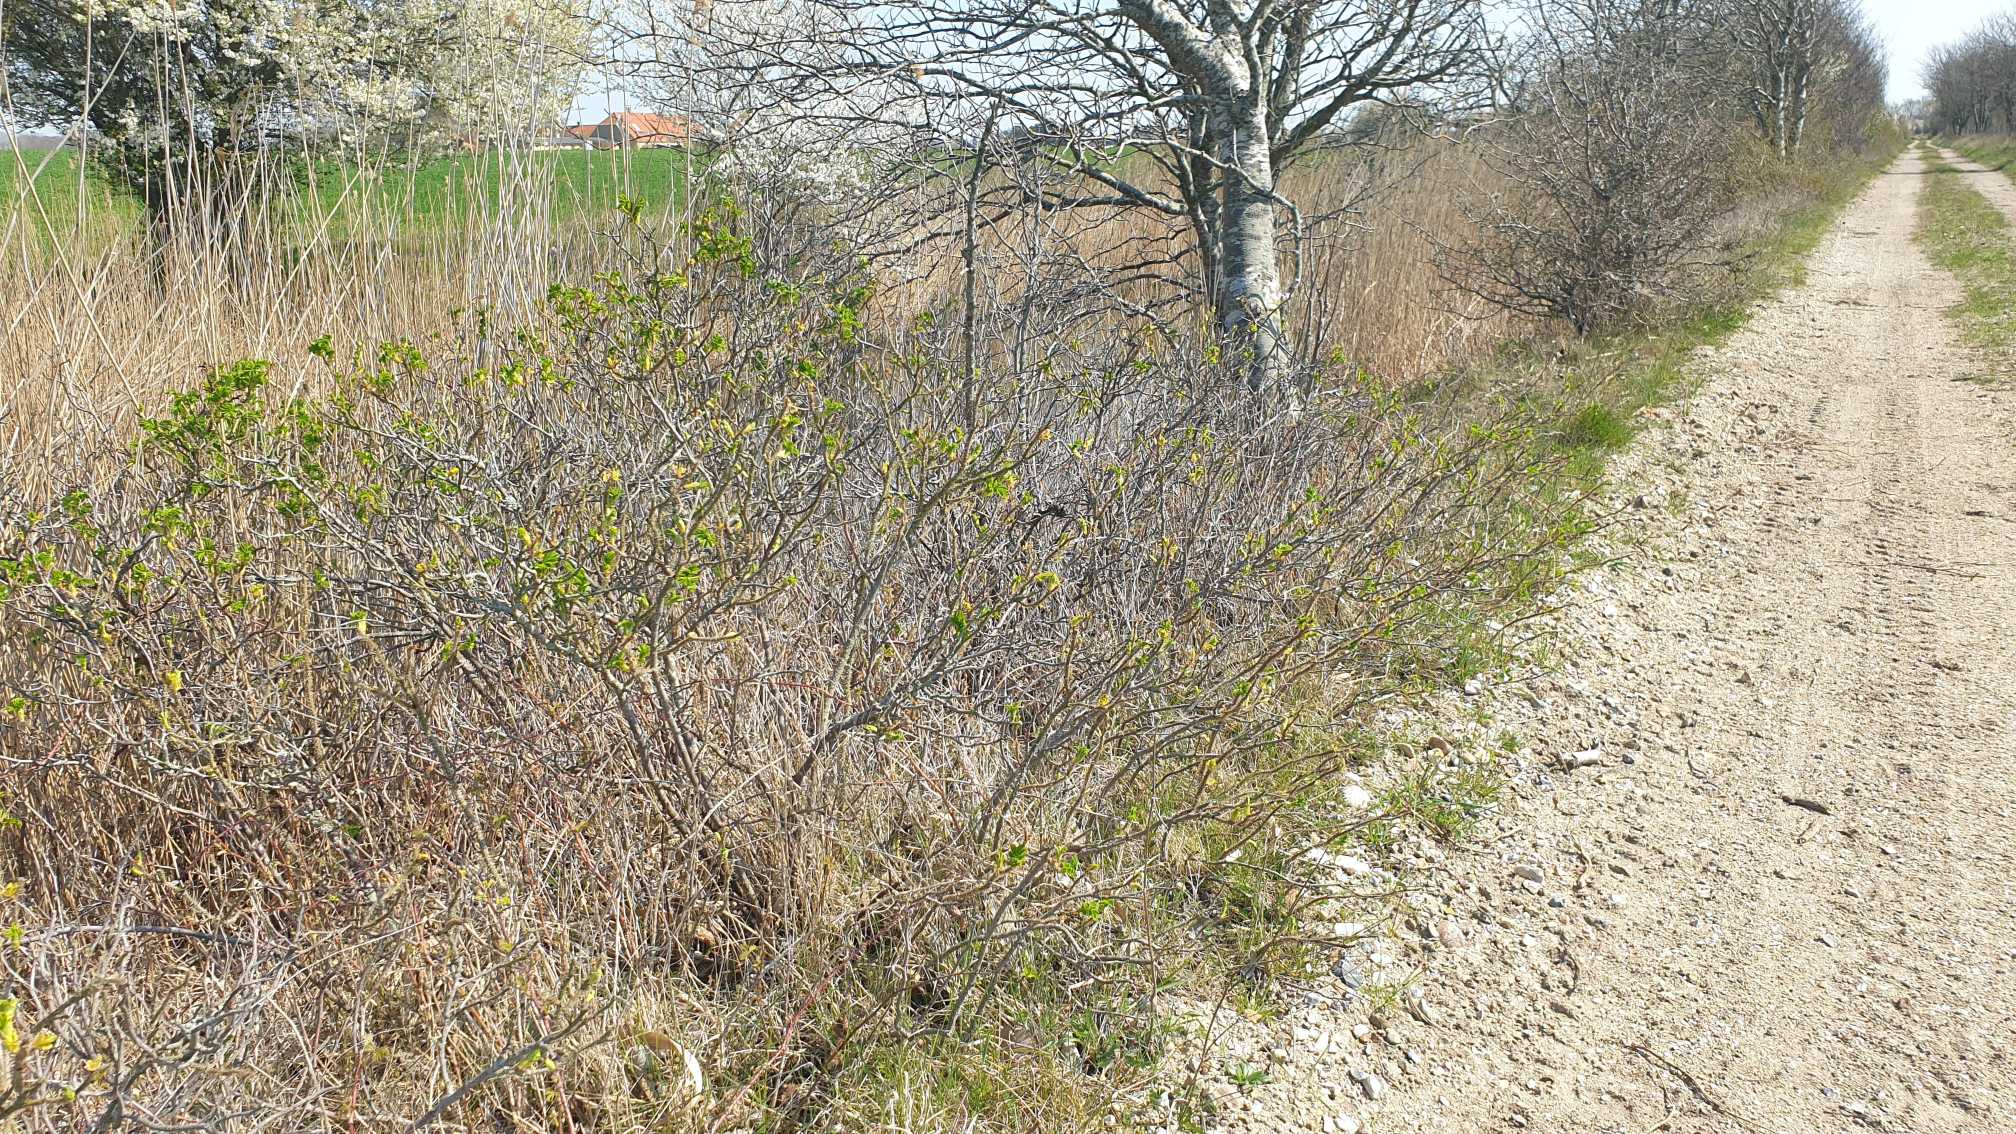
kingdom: Plantae
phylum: Tracheophyta
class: Magnoliopsida
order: Rosales
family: Rosaceae
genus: Rosa
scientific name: Rosa rugosa
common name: Rynket rose
